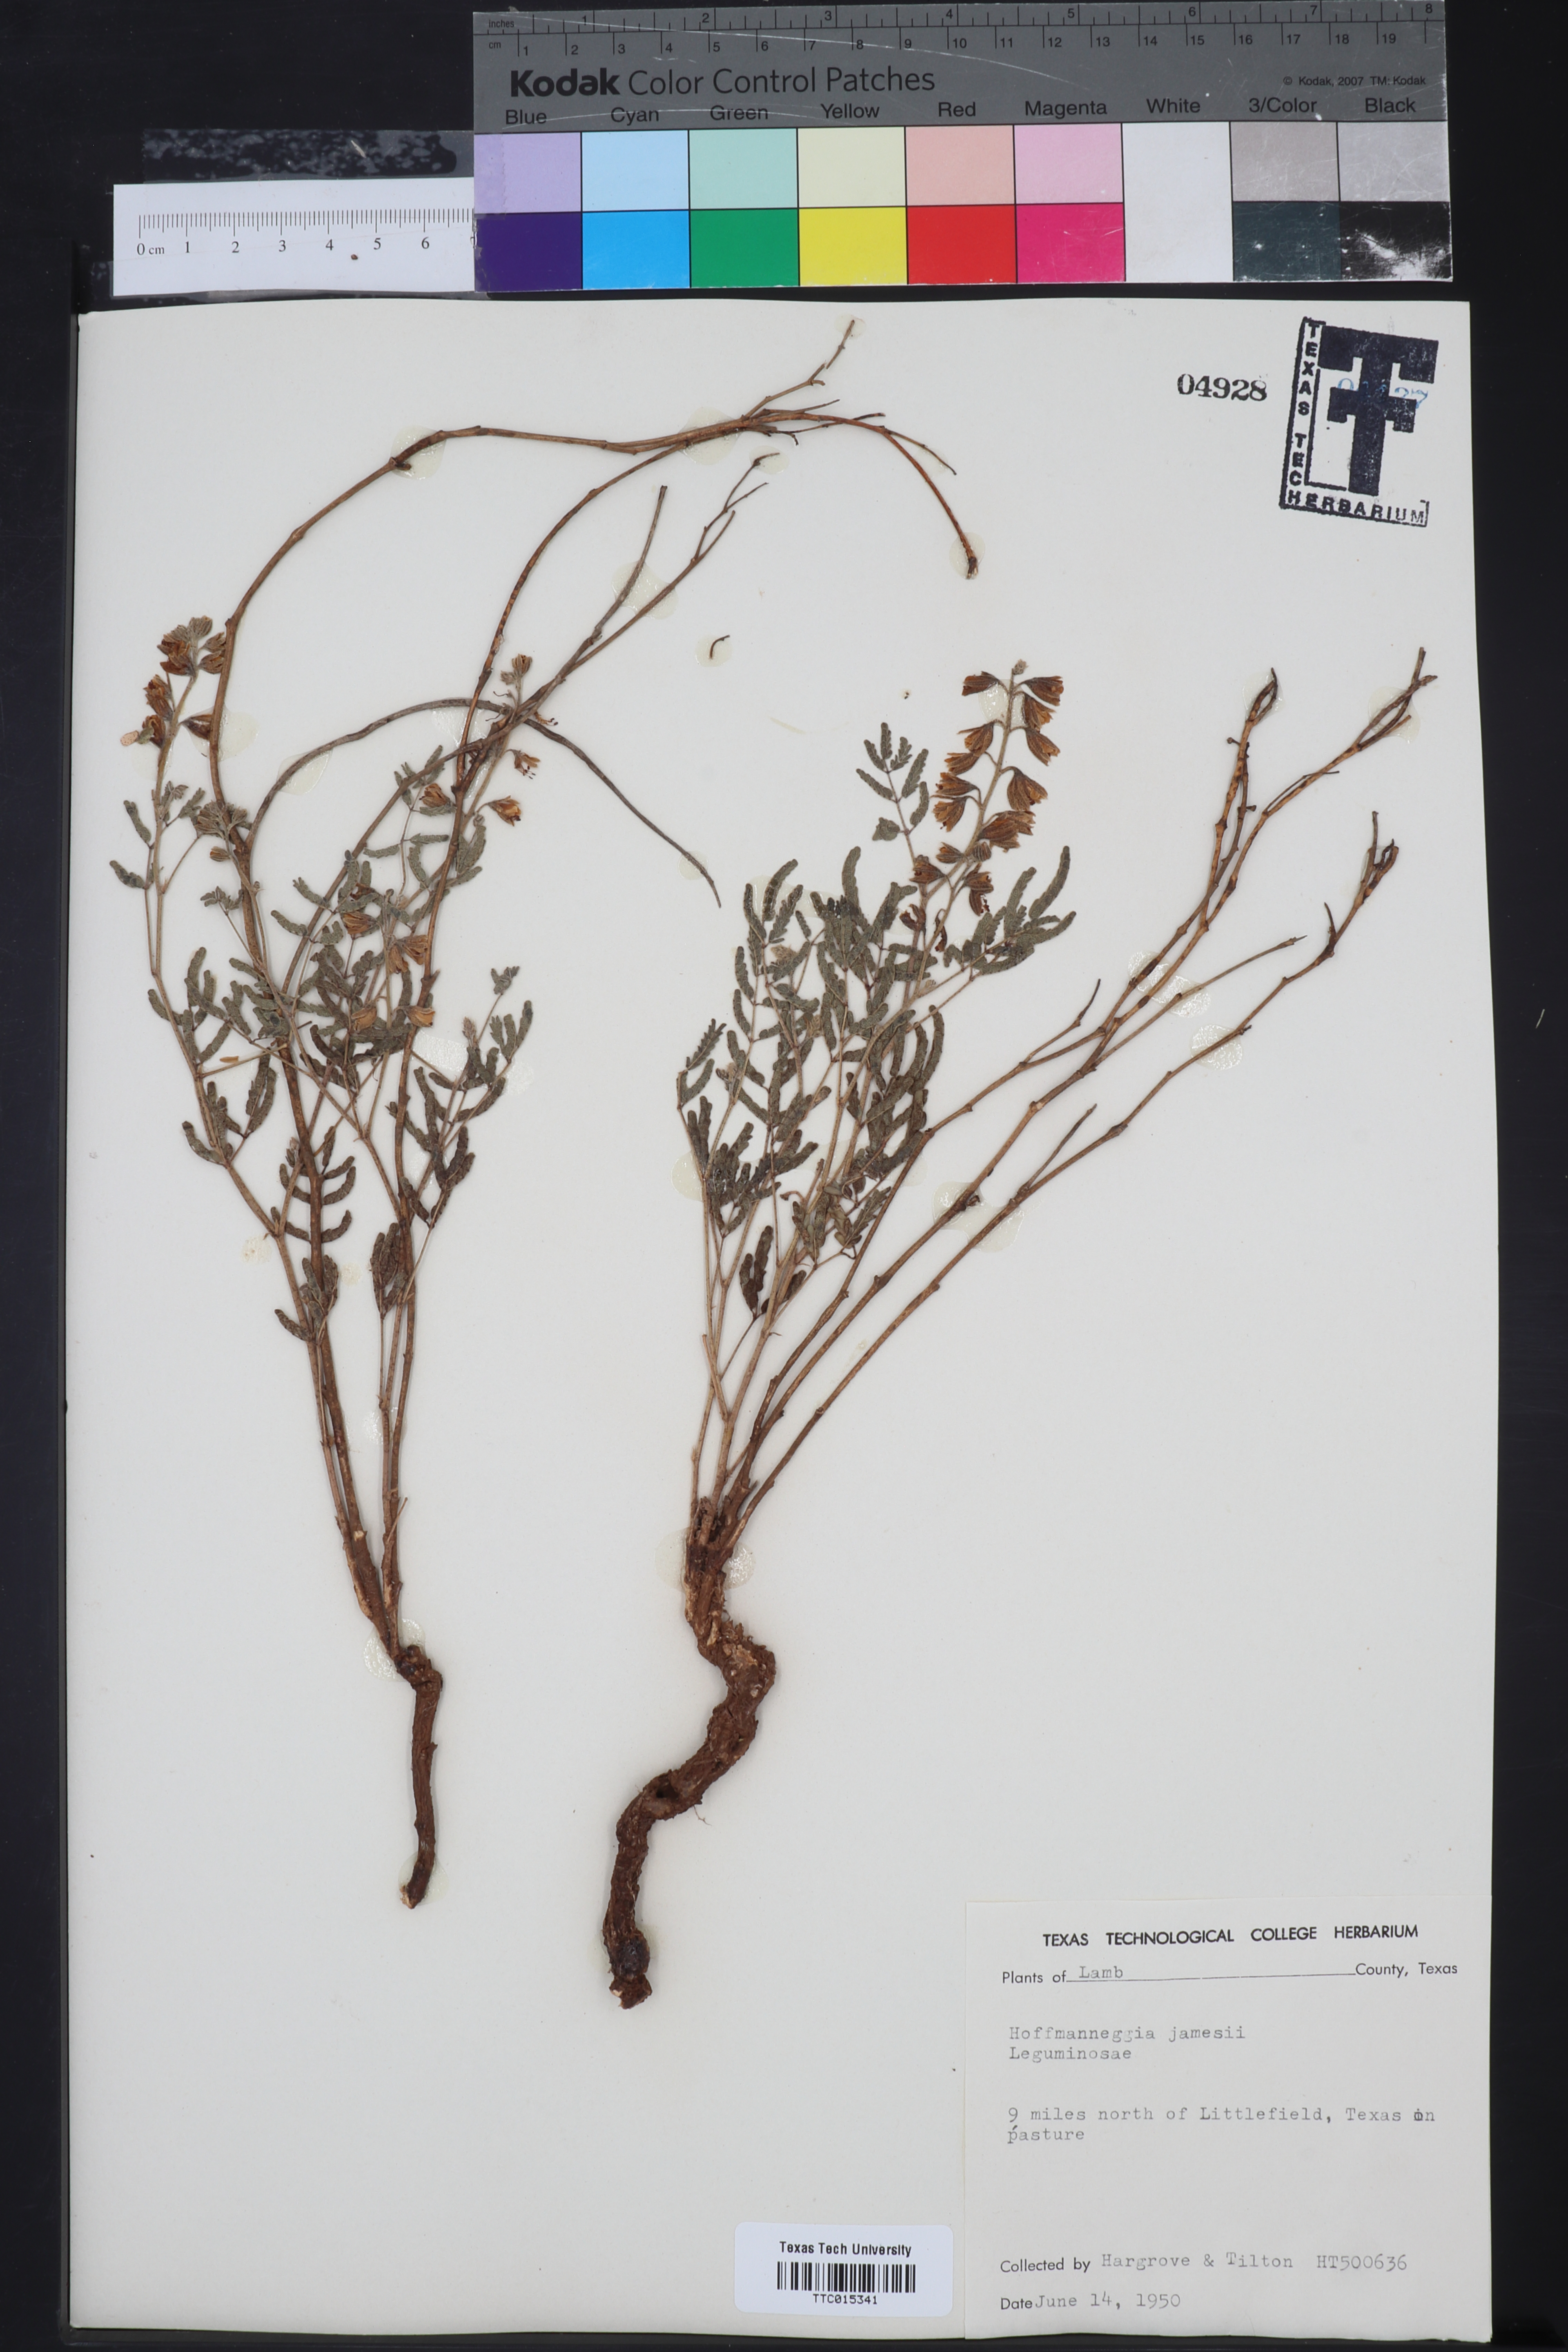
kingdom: Plantae
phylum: Tracheophyta
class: Magnoliopsida
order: Fabales
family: Fabaceae
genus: Pomaria
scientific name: Pomaria jamesii
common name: James' caesalpinia
